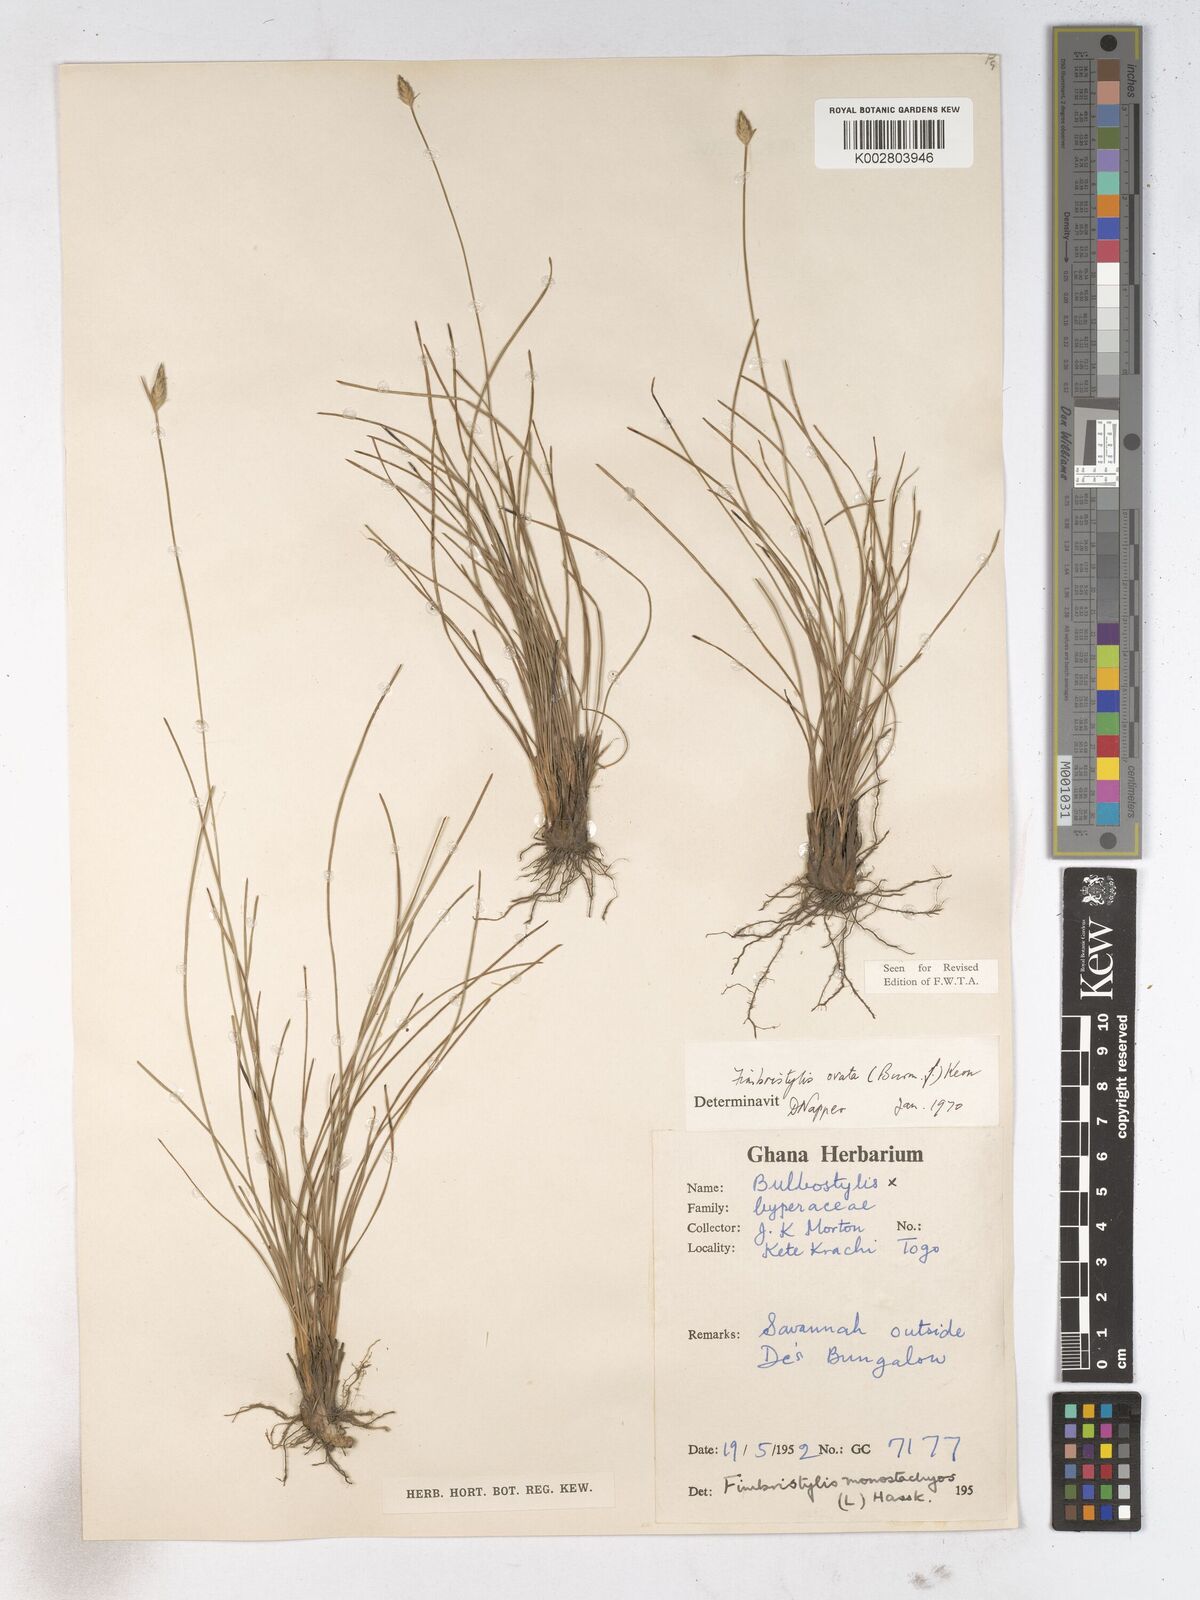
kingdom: Plantae
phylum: Tracheophyta
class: Liliopsida
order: Poales
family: Cyperaceae
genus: Abildgaardia
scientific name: Abildgaardia ovata
